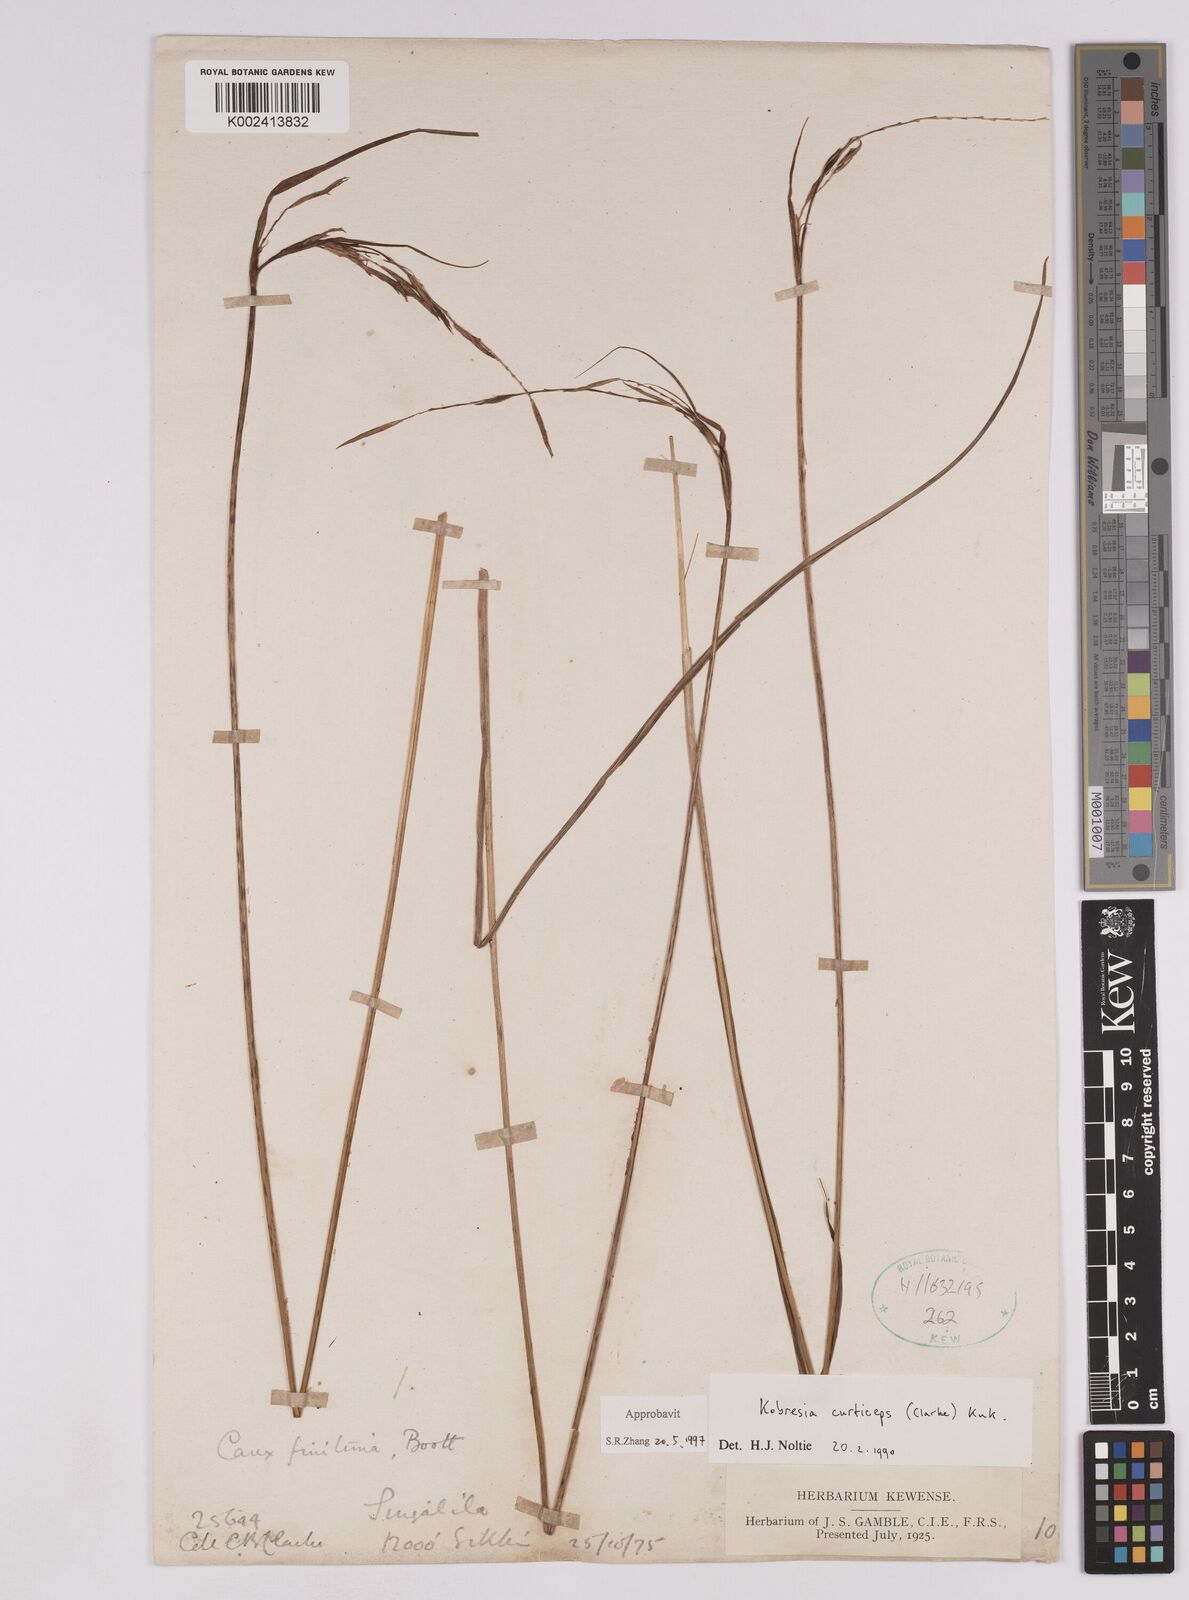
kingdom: Plantae
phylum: Tracheophyta
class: Liliopsida
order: Poales
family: Cyperaceae
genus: Carex
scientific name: Carex curticeps
